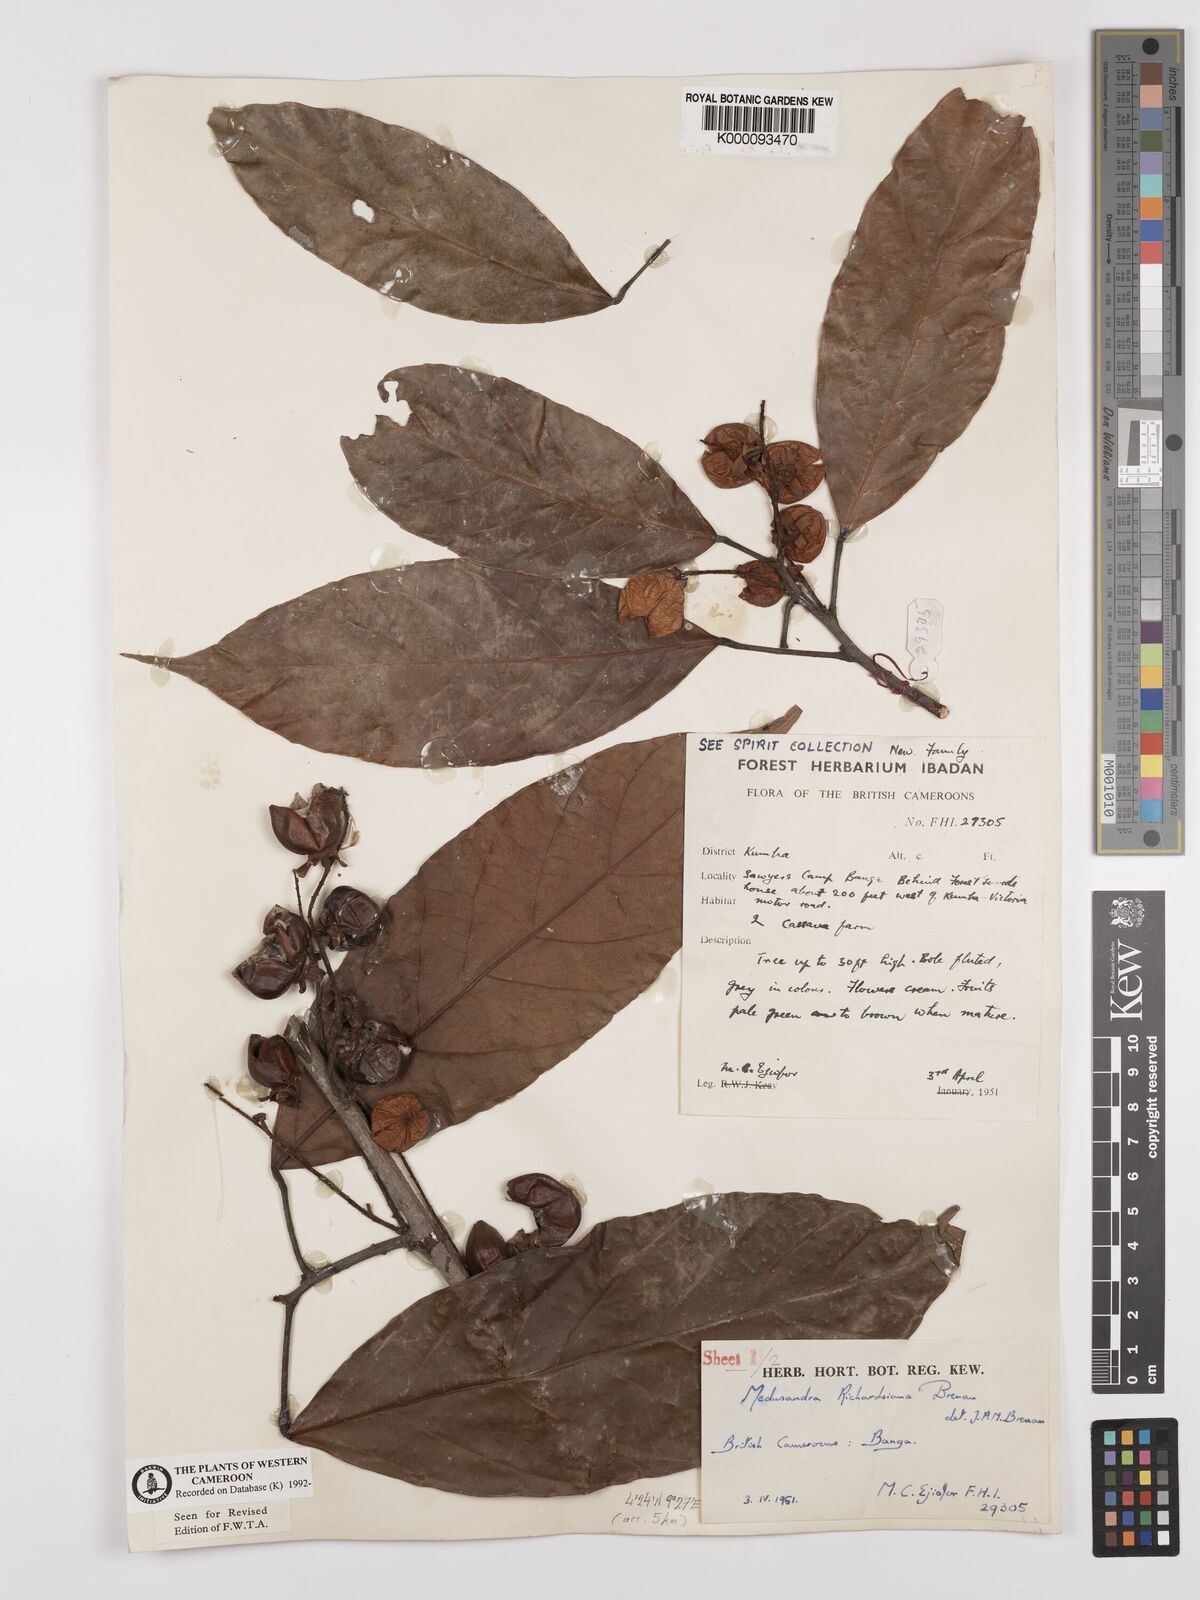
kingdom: Plantae
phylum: Tracheophyta
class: Magnoliopsida
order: Saxifragales
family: Peridiscaceae
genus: Medusandra
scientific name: Medusandra richardsiana
